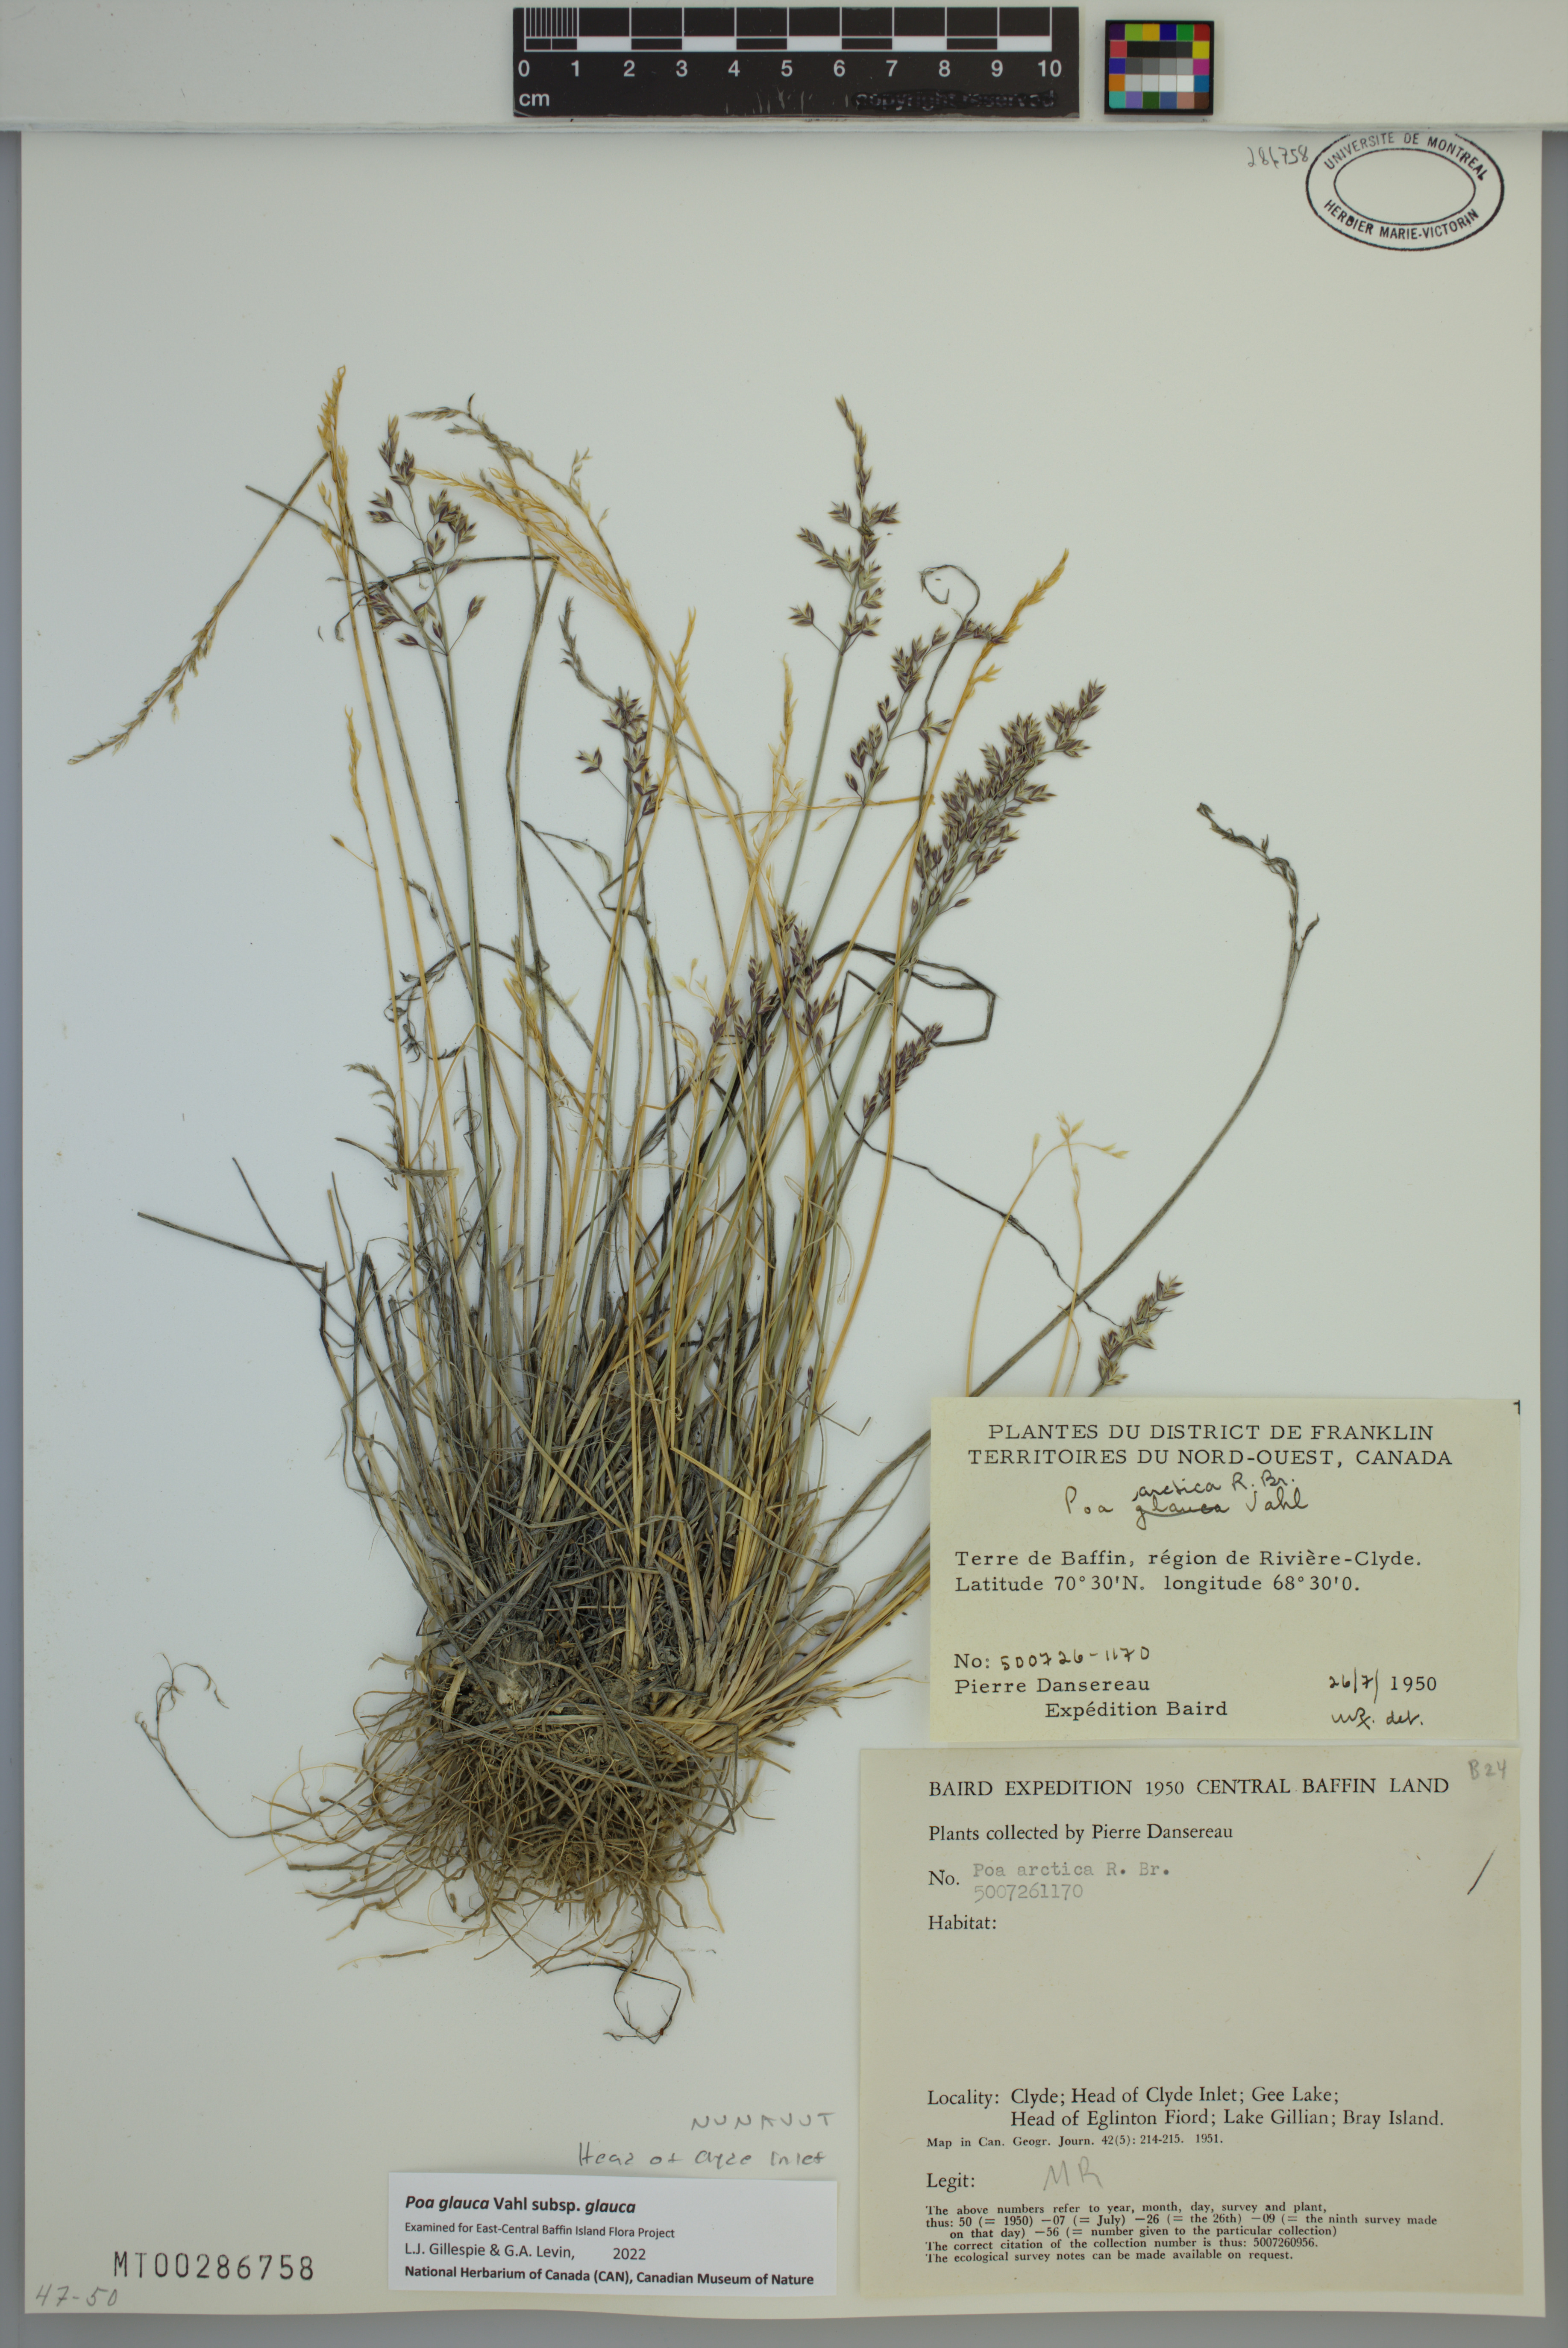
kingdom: Plantae
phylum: Tracheophyta
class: Liliopsida
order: Poales
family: Poaceae
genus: Poa
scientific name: Poa glauca
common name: Glaucous bluegrass
